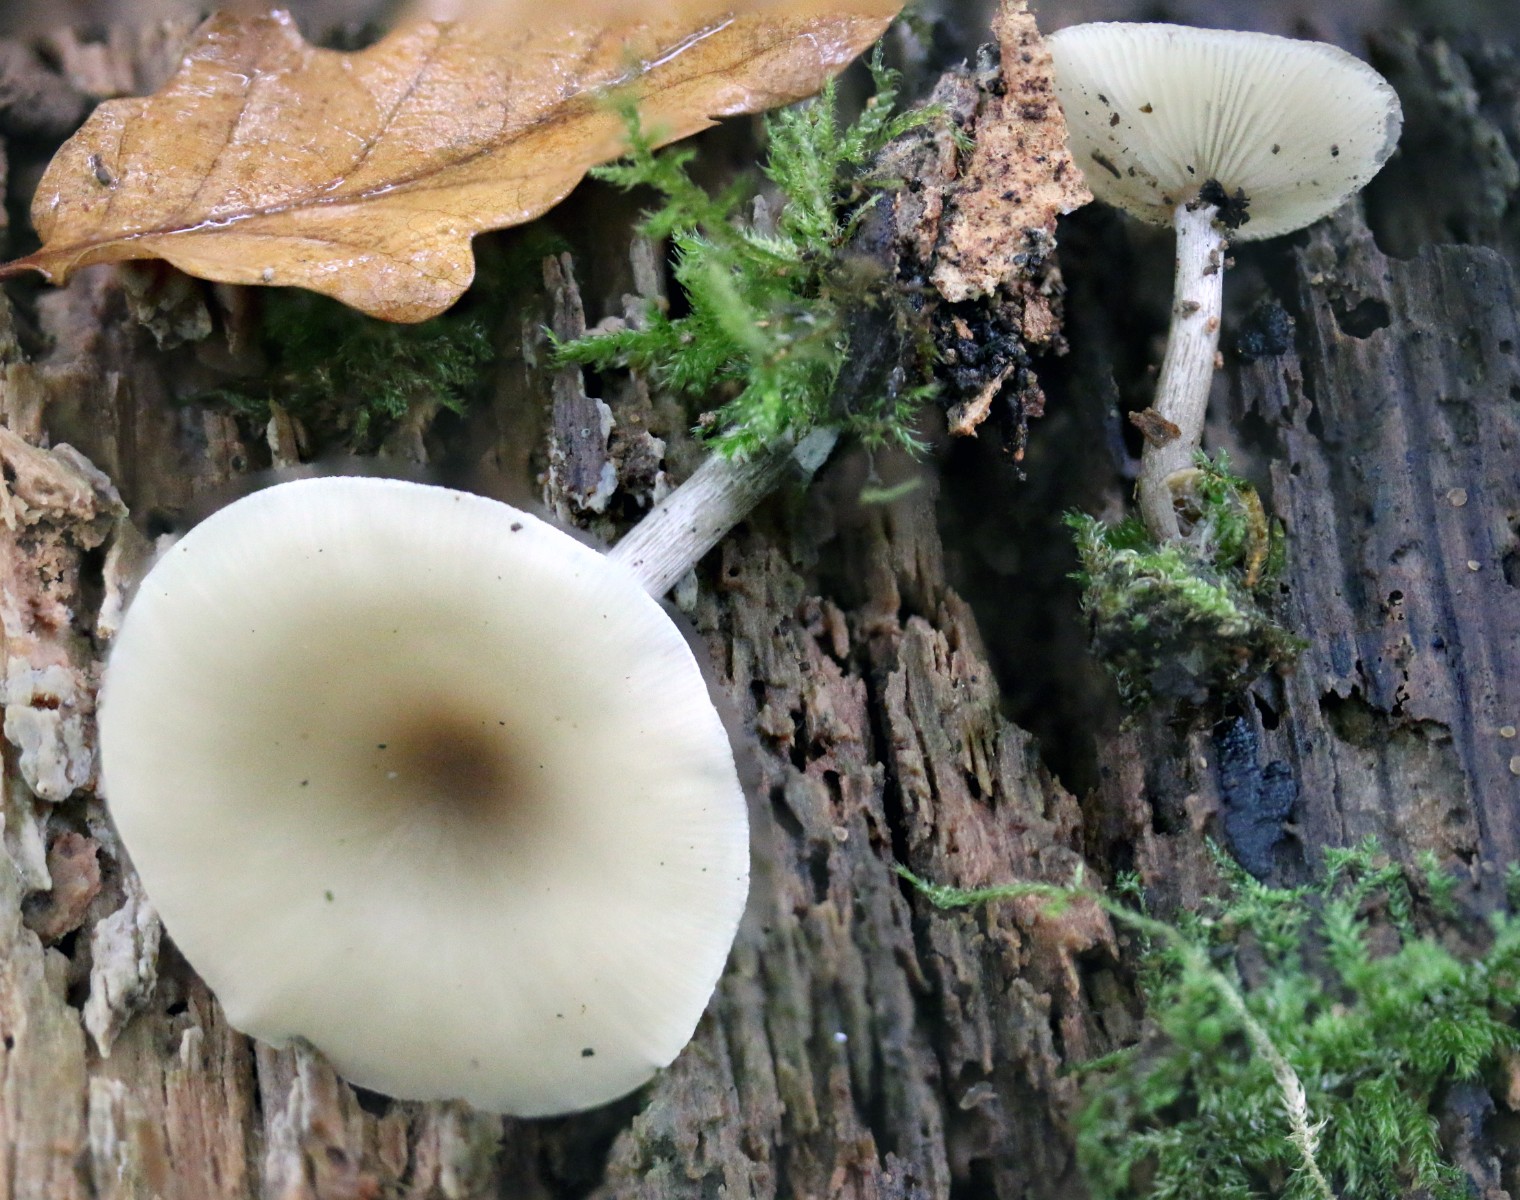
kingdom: Fungi
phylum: Basidiomycota
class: Agaricomycetes
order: Agaricales
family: Tricholomataceae
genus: Clitocybe
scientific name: Clitocybe
